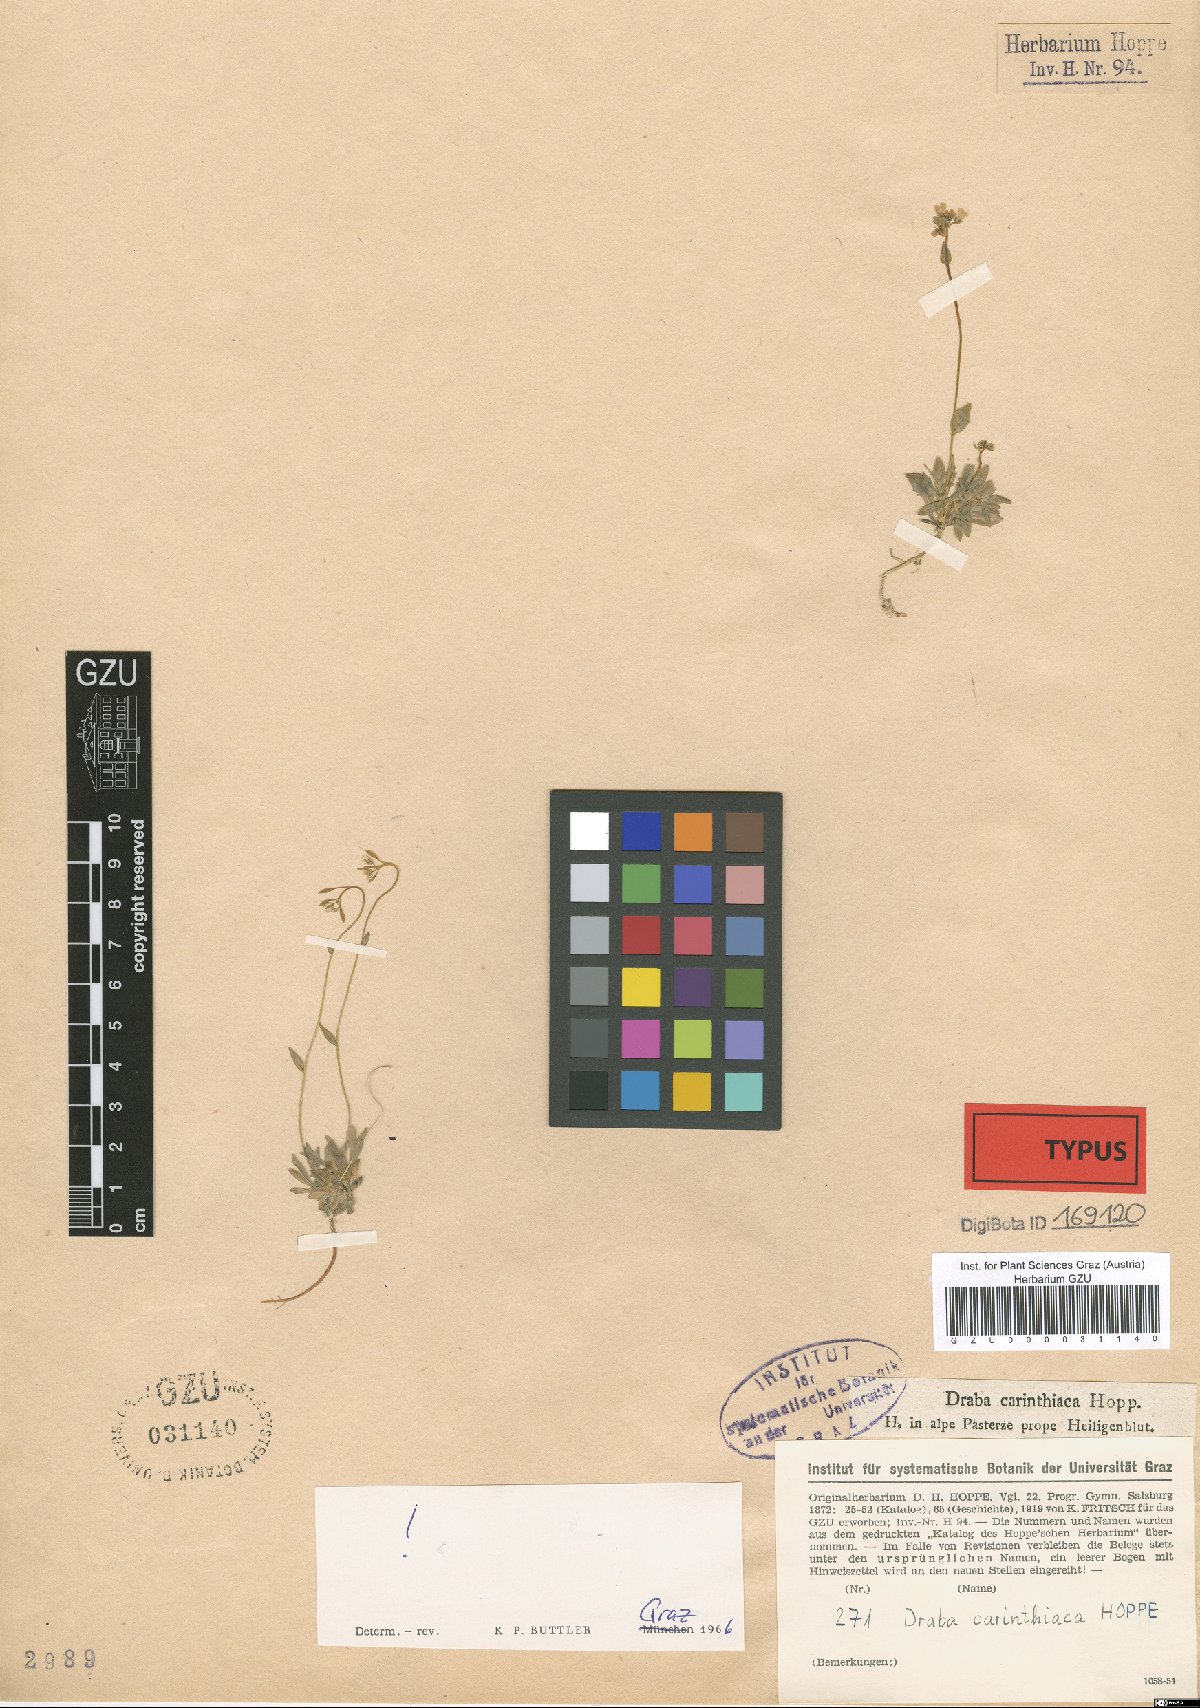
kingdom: Plantae
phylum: Tracheophyta
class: Magnoliopsida
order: Brassicales
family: Brassicaceae
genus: Draba
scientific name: Draba siliquosa
